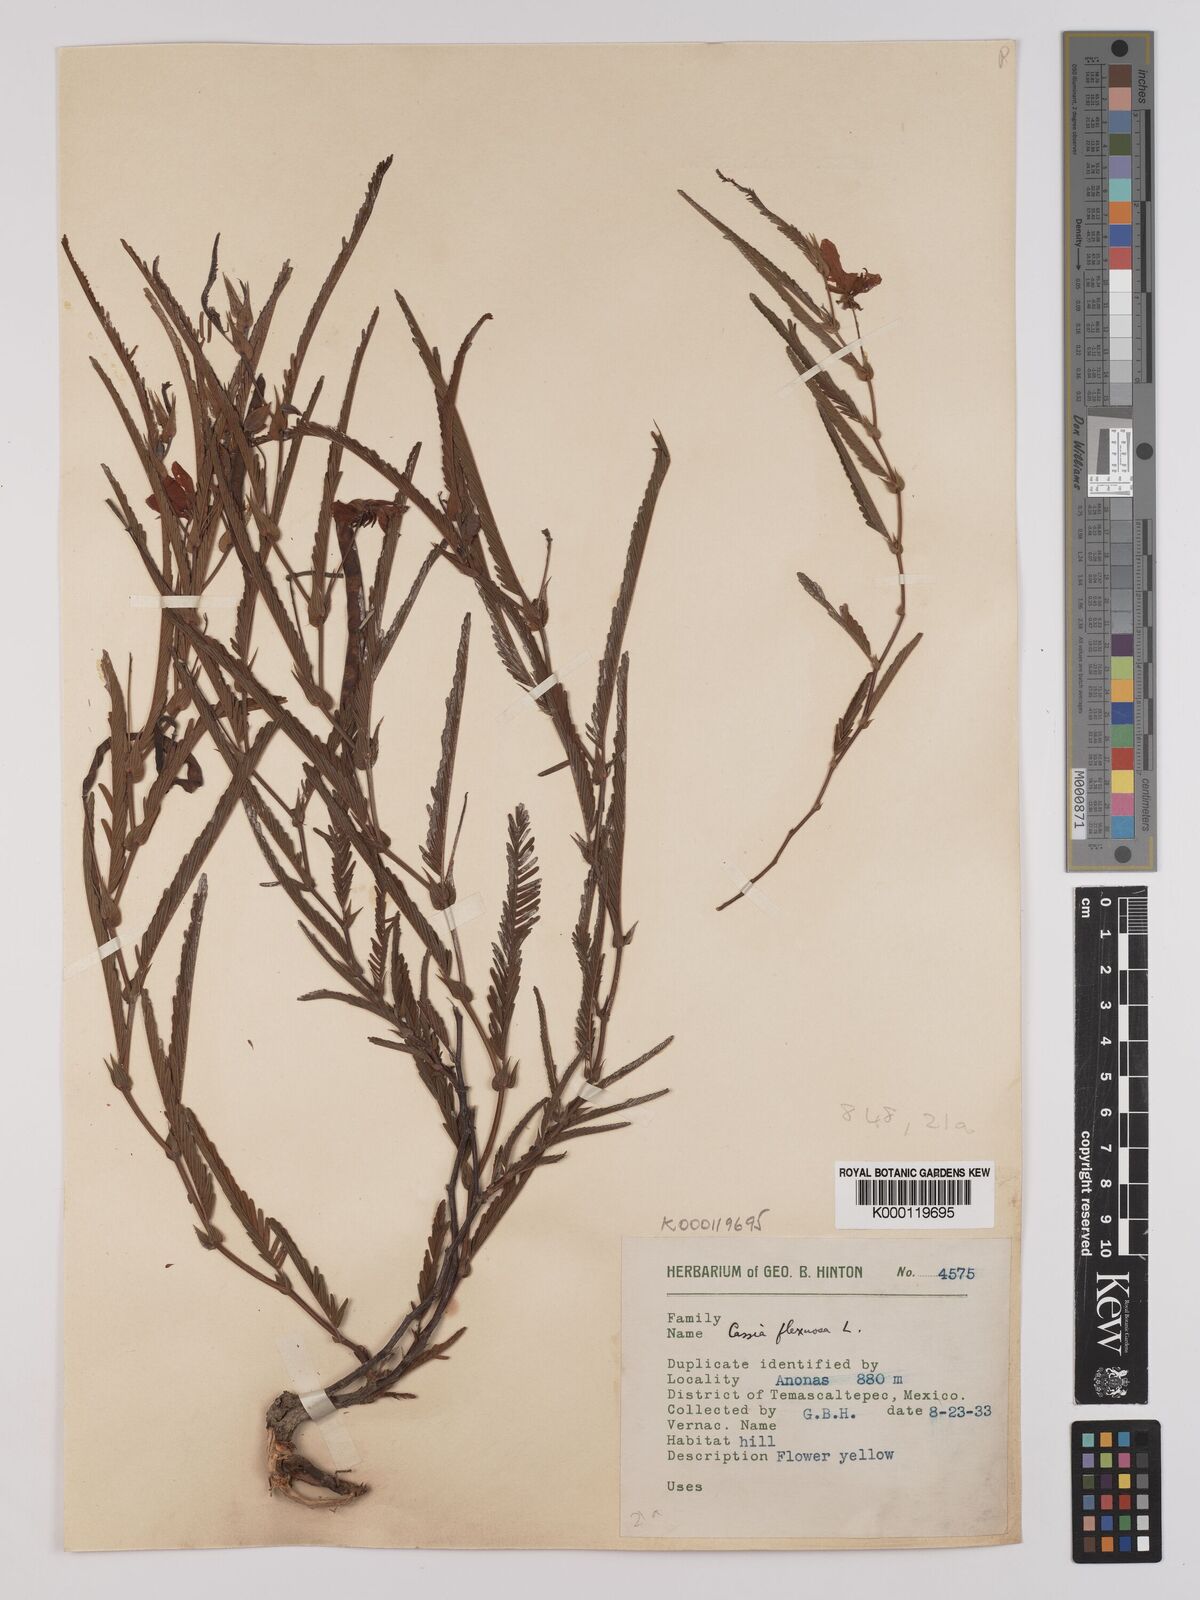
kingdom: Plantae
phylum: Tracheophyta
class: Magnoliopsida
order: Fabales
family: Fabaceae
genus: Chamaecrista
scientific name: Chamaecrista flexuosa
